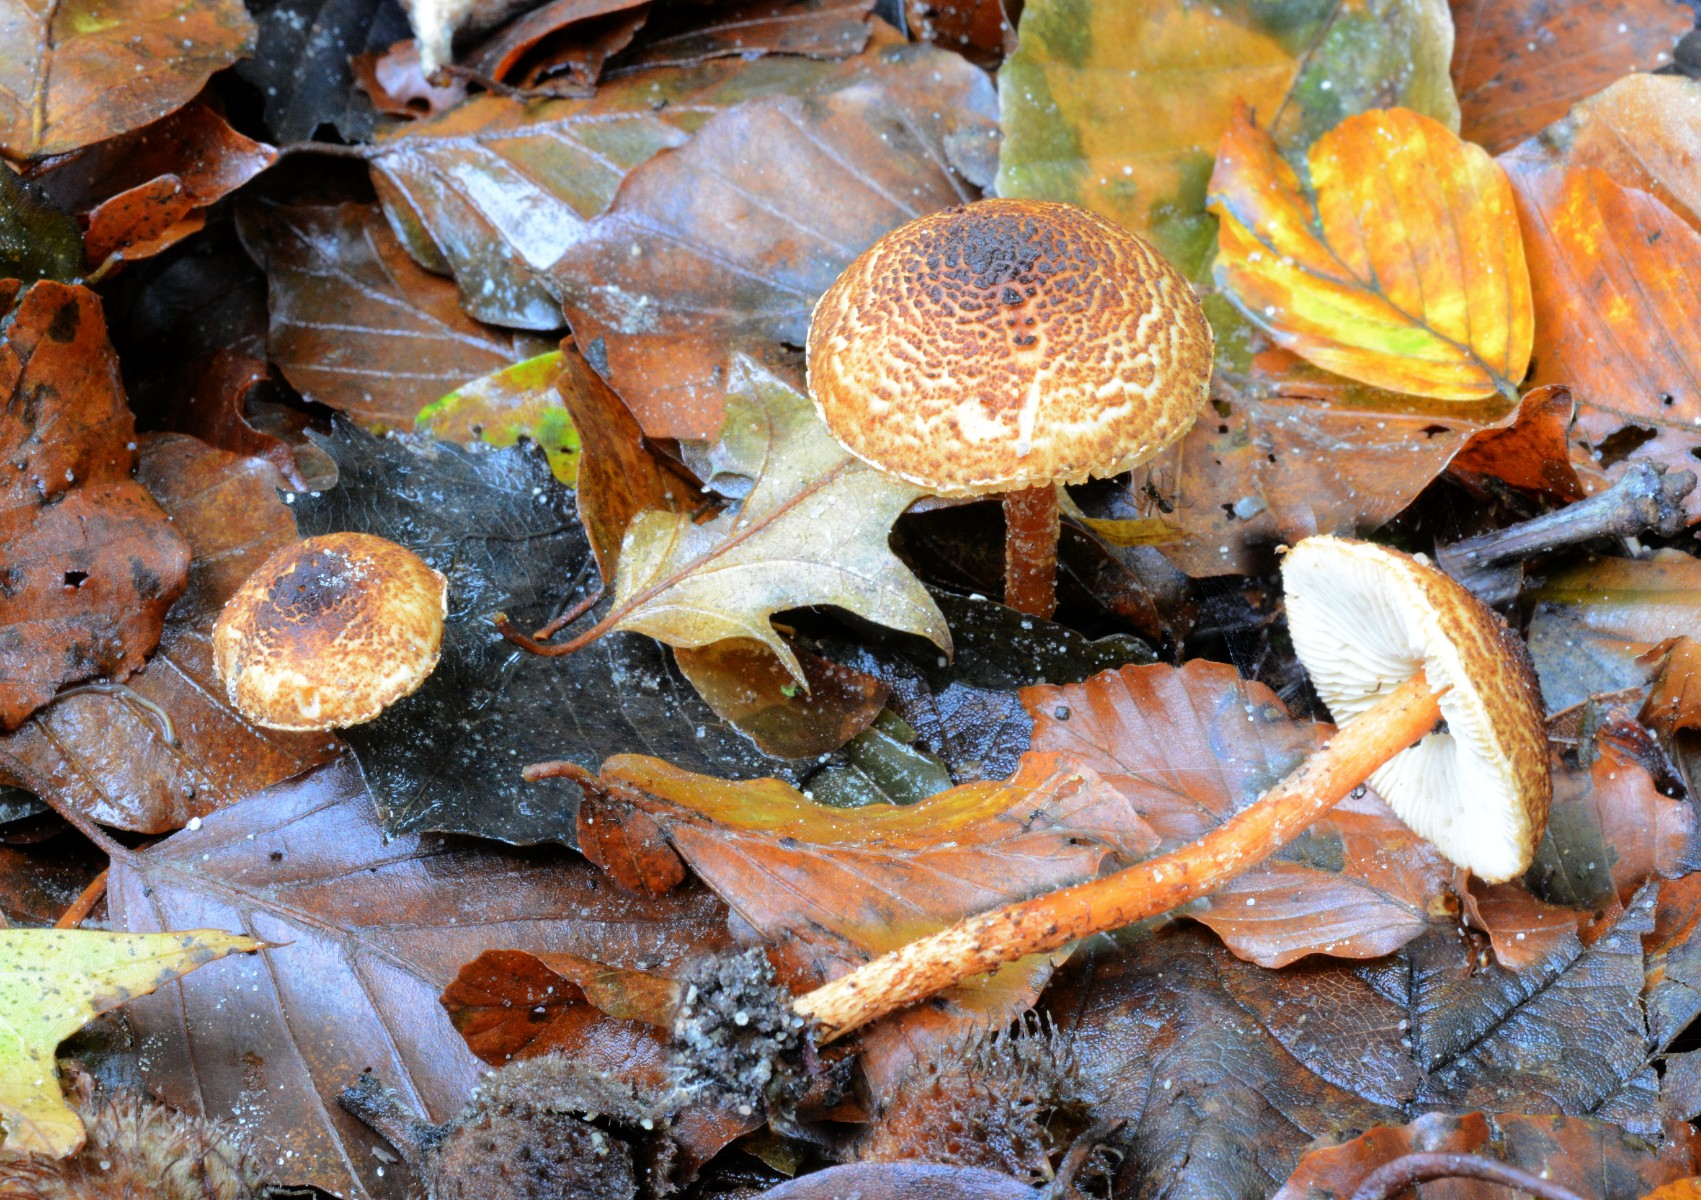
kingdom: Fungi
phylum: Basidiomycota
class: Agaricomycetes
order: Agaricales
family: Agaricaceae
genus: Lepiota
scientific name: Lepiota castanea
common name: kastaniebrun parasolhat
